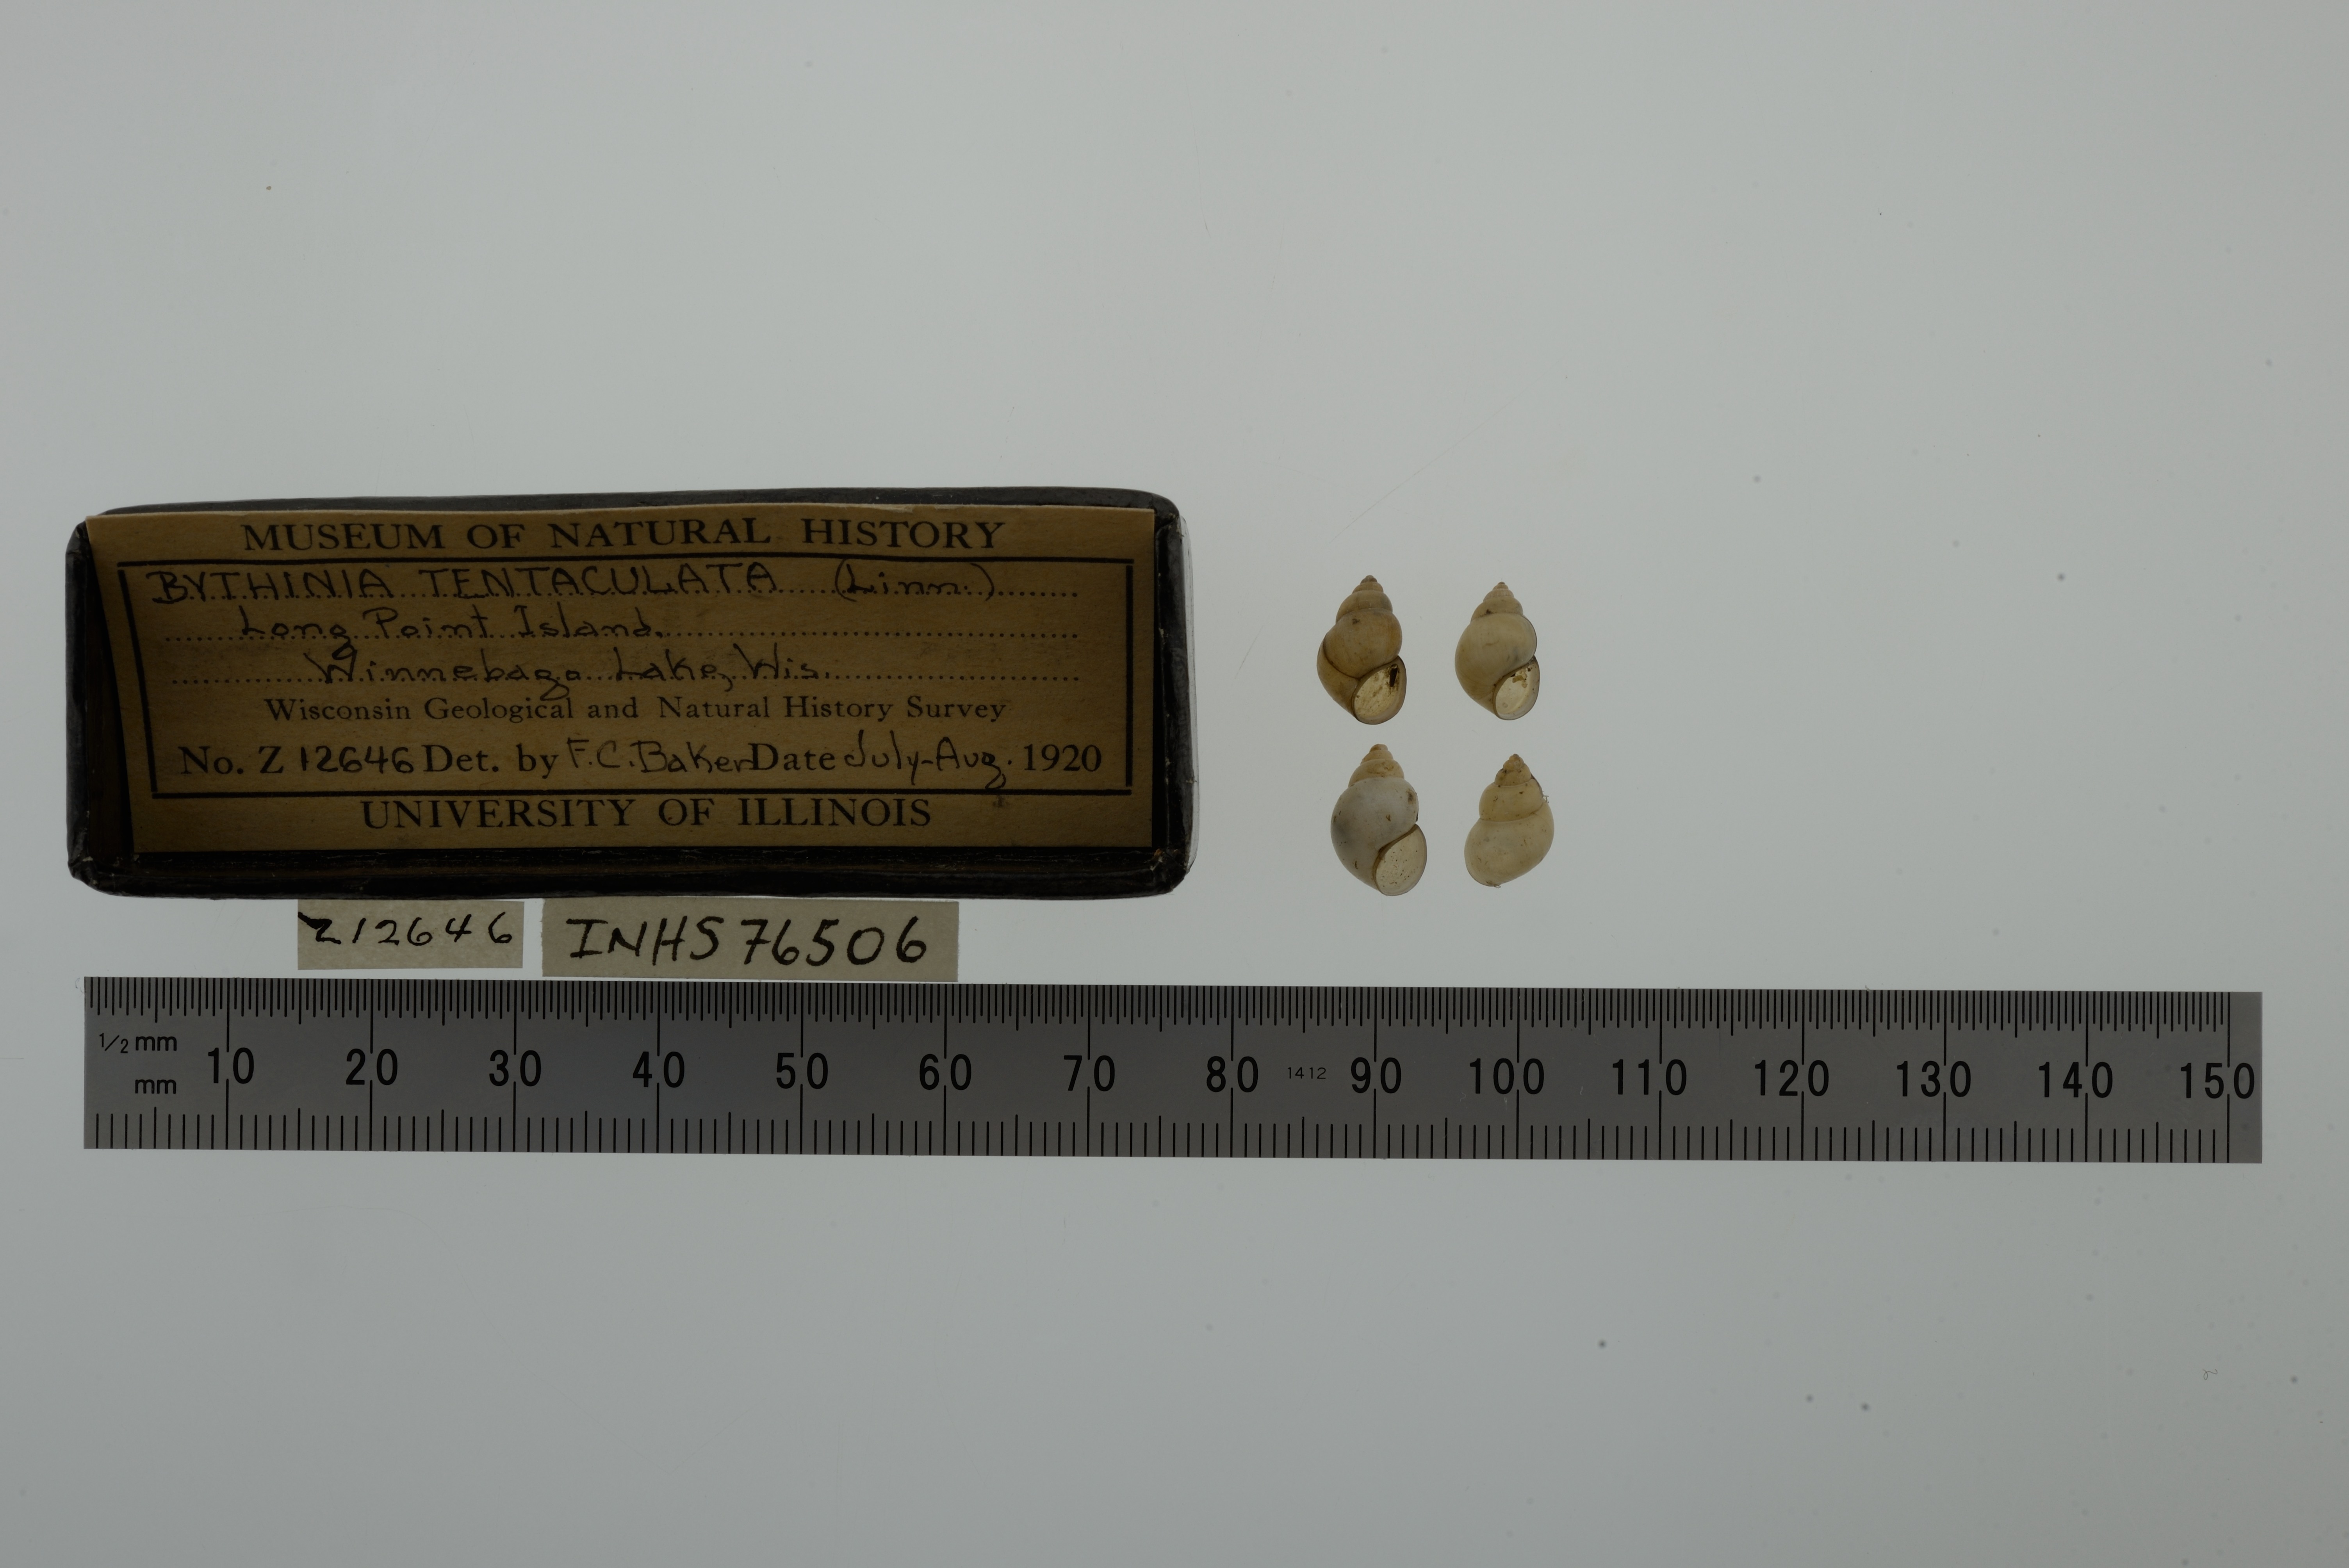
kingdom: Animalia
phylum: Mollusca
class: Gastropoda
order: Littorinimorpha
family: Bithyniidae
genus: Bithynia
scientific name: Bithynia tentaculata
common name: Common bithynia
